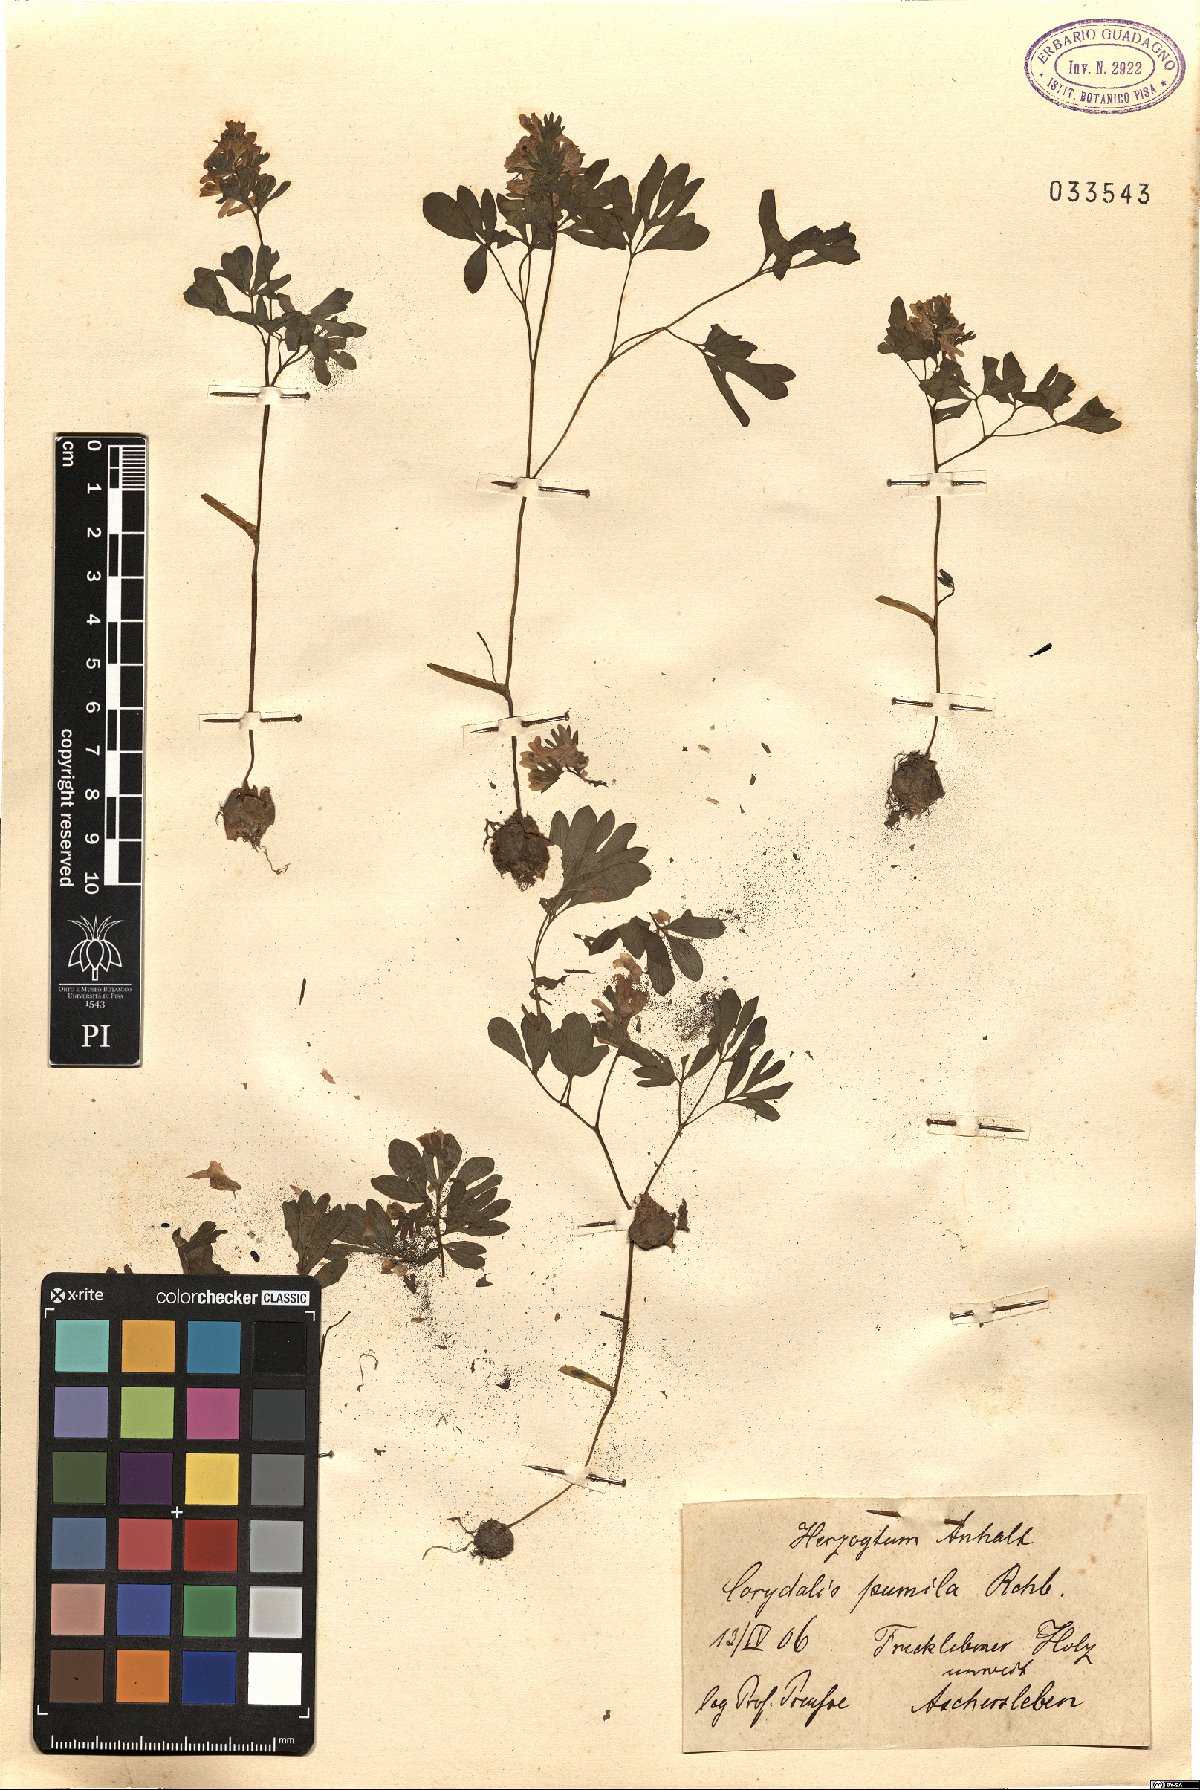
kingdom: Plantae
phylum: Tracheophyta
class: Magnoliopsida
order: Ranunculales
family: Papaveraceae
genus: Corydalis
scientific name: Corydalis pumila
